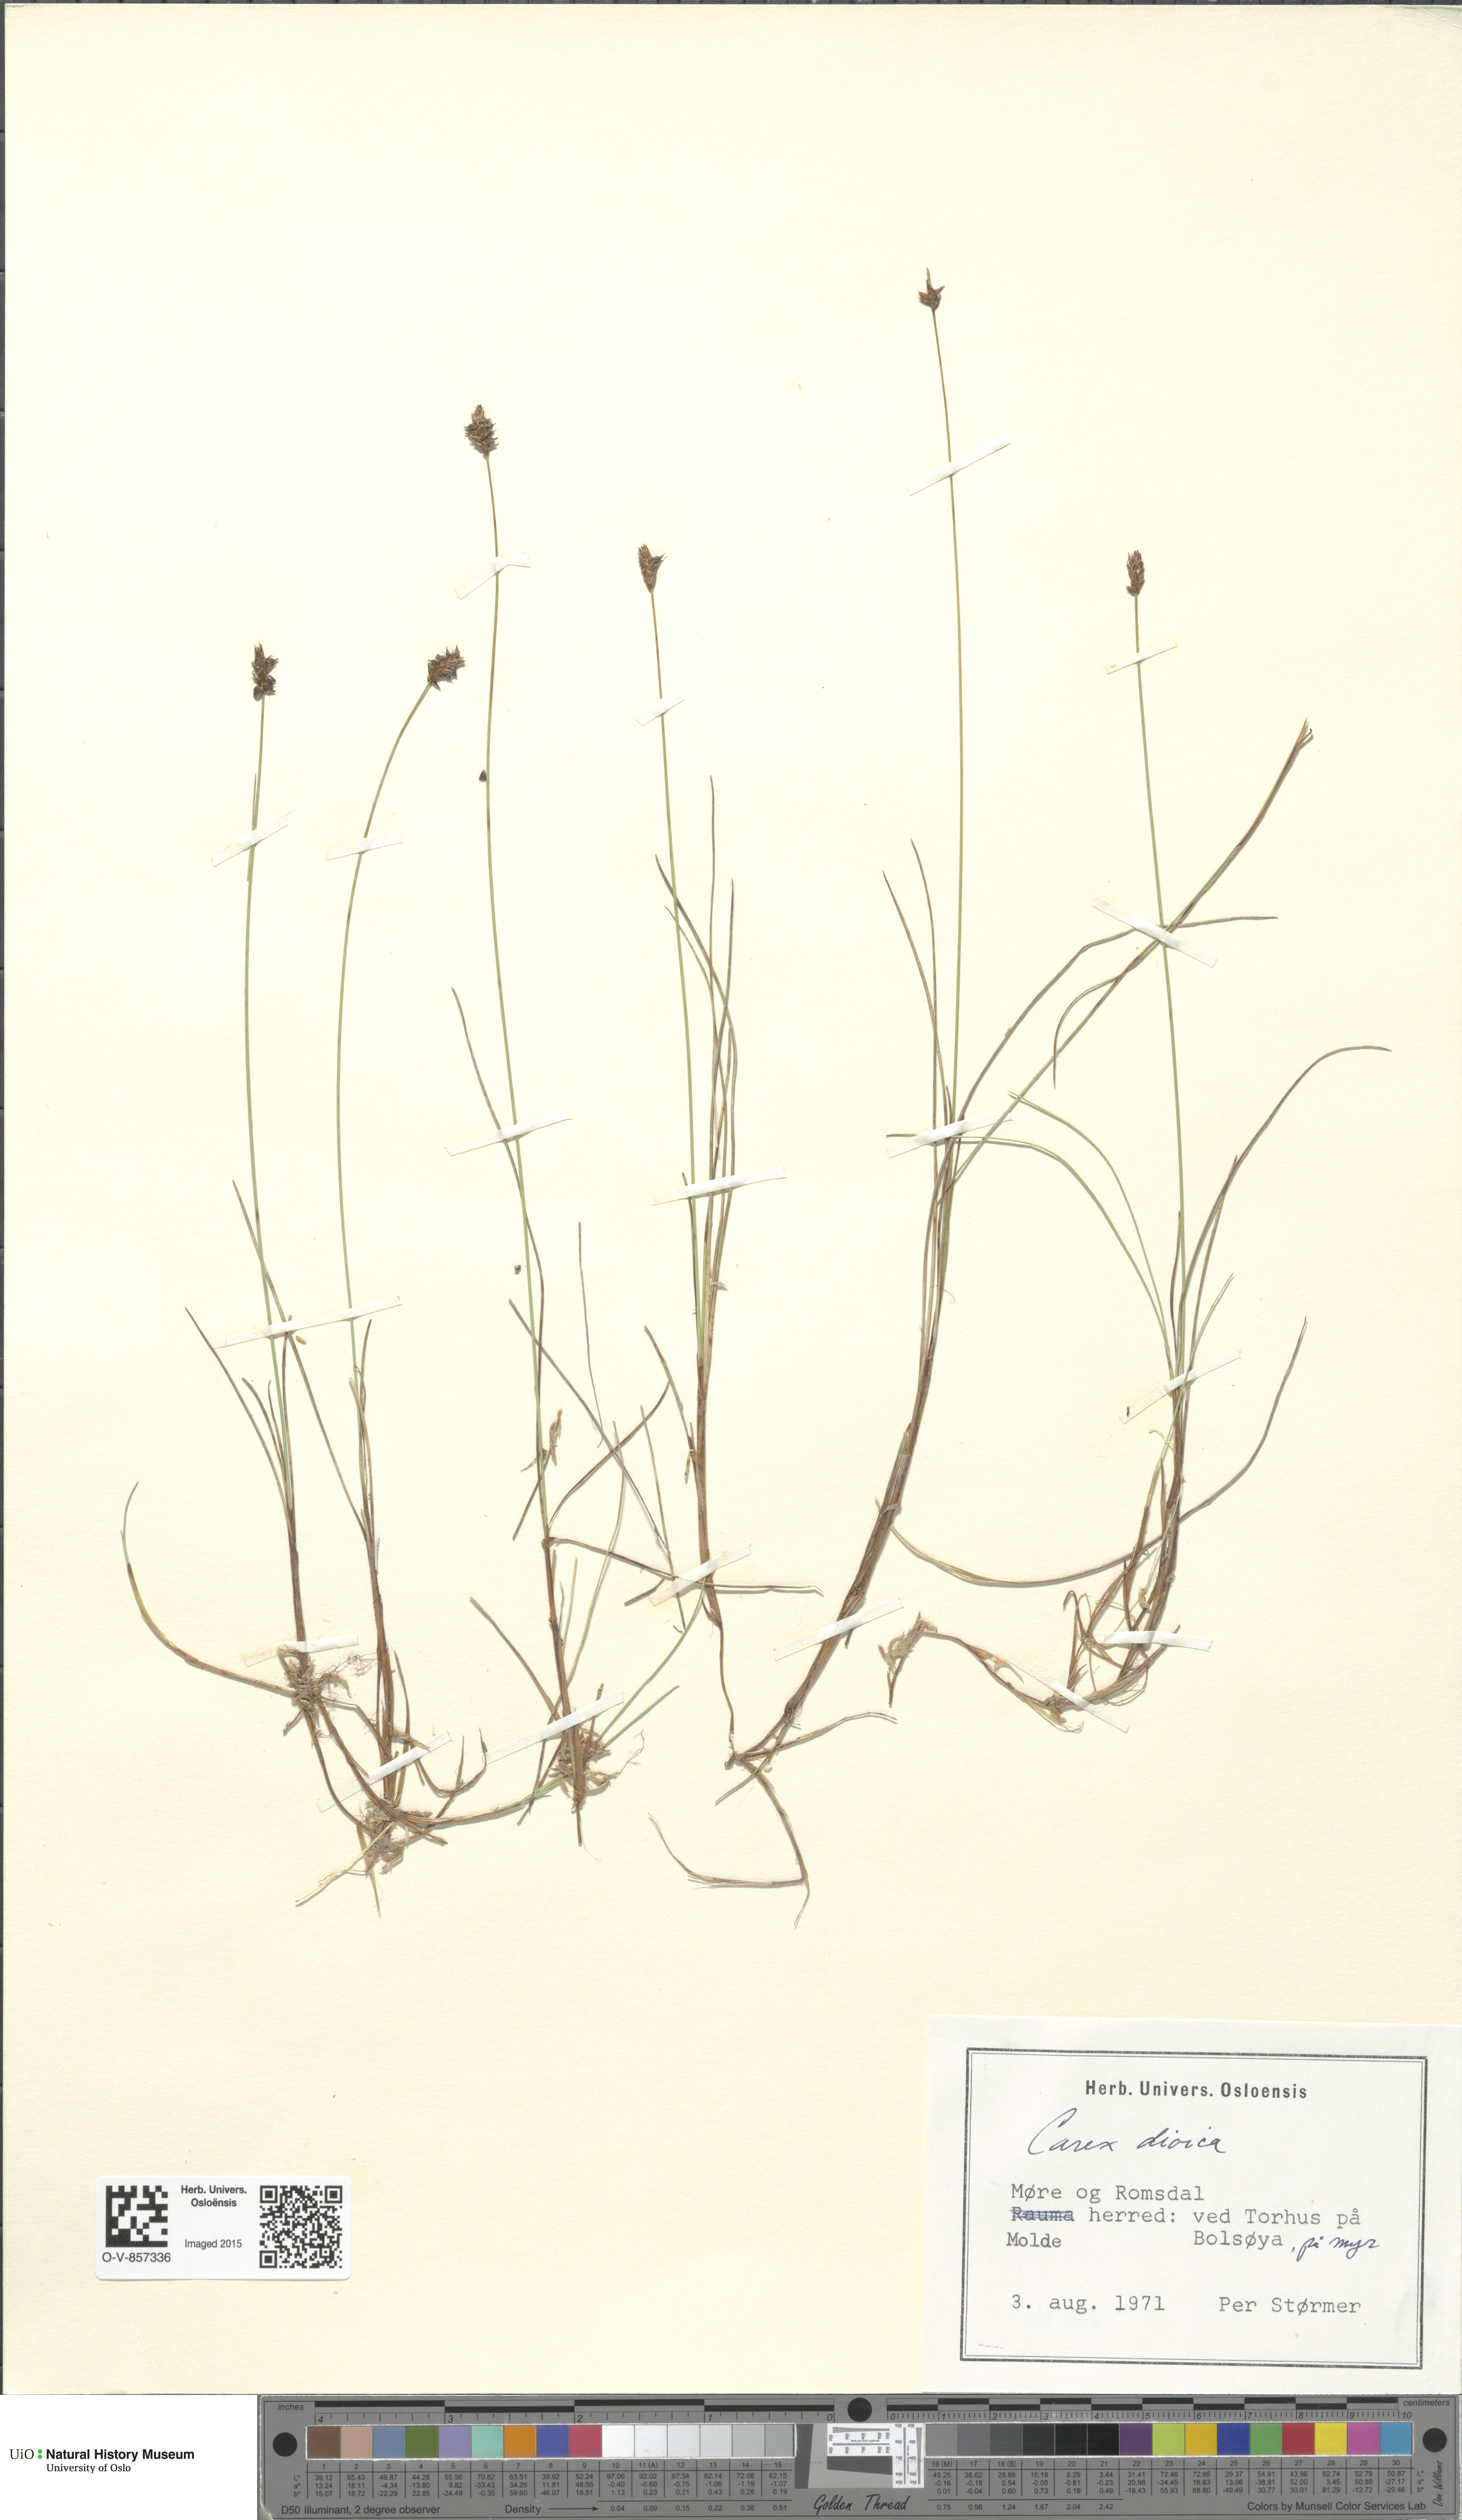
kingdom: Plantae
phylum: Tracheophyta
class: Liliopsida
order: Poales
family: Cyperaceae
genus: Carex
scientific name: Carex dioica
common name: Dioecious sedge
